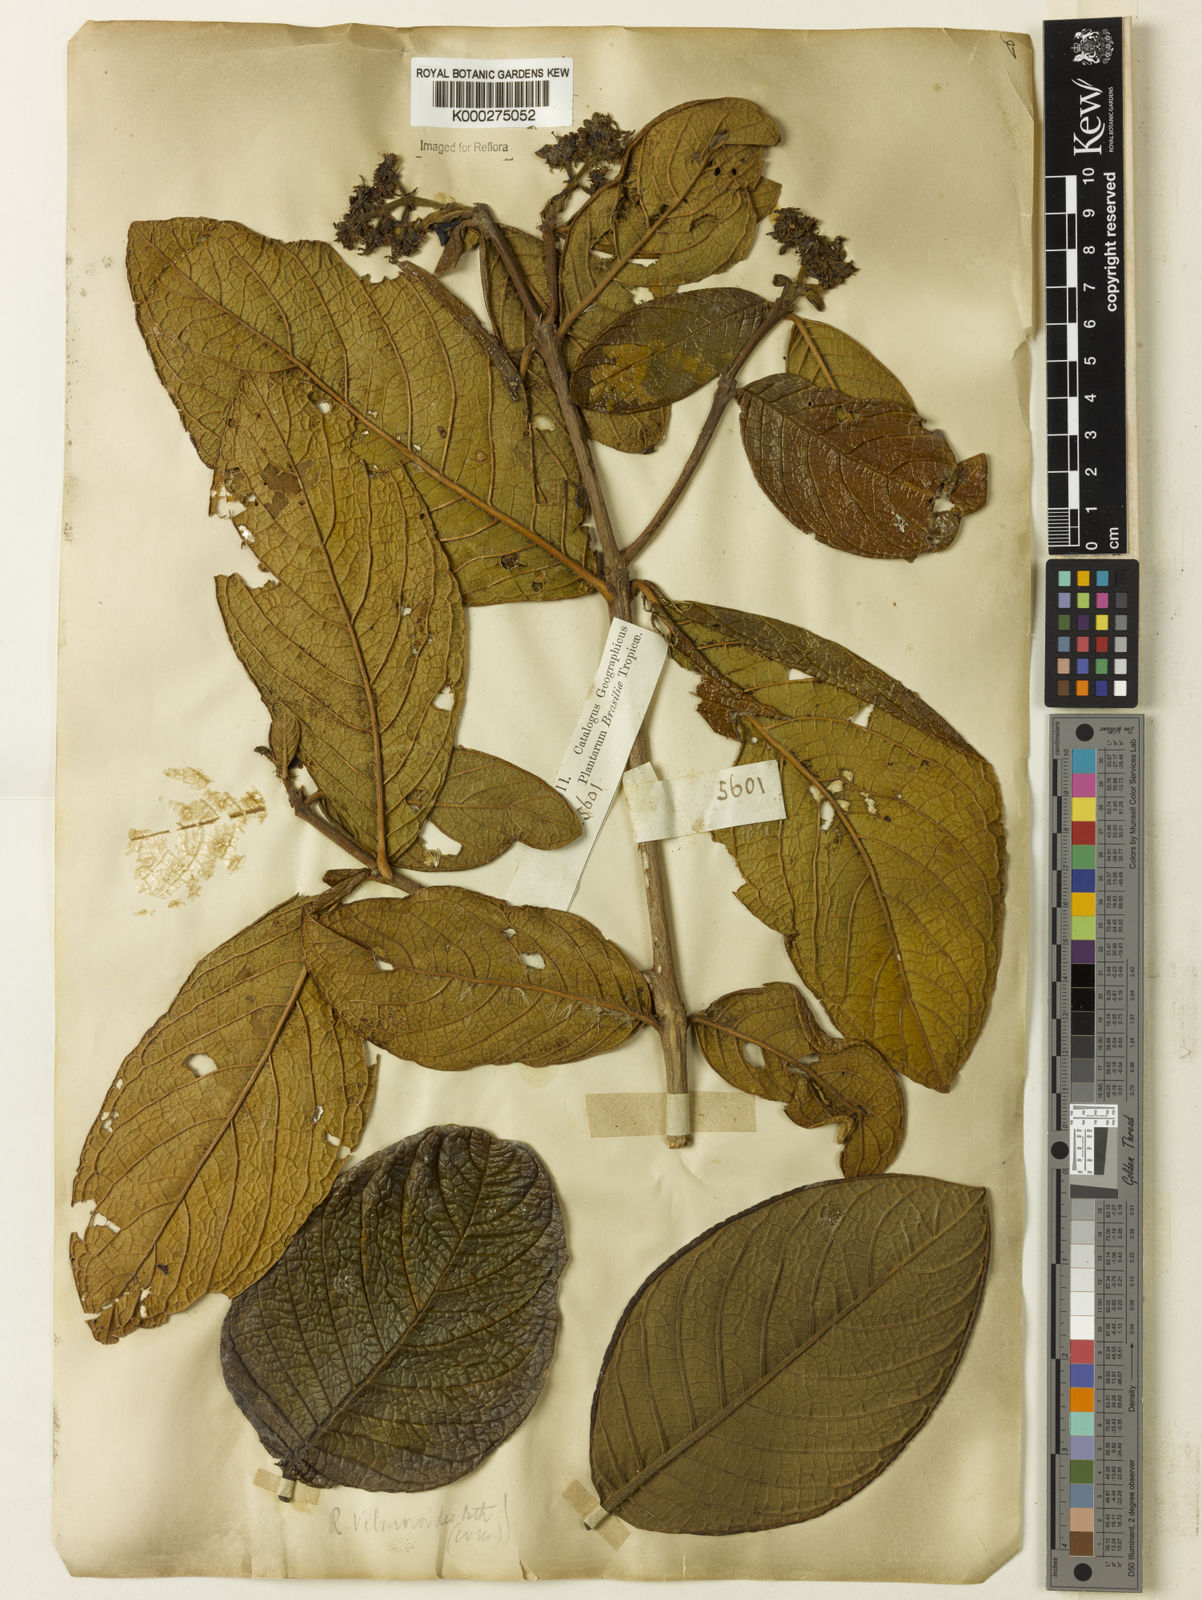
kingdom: Plantae
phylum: Tracheophyta
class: Magnoliopsida
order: Gentianales
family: Rubiaceae
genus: Rudgea
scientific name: Rudgea viburnoides
